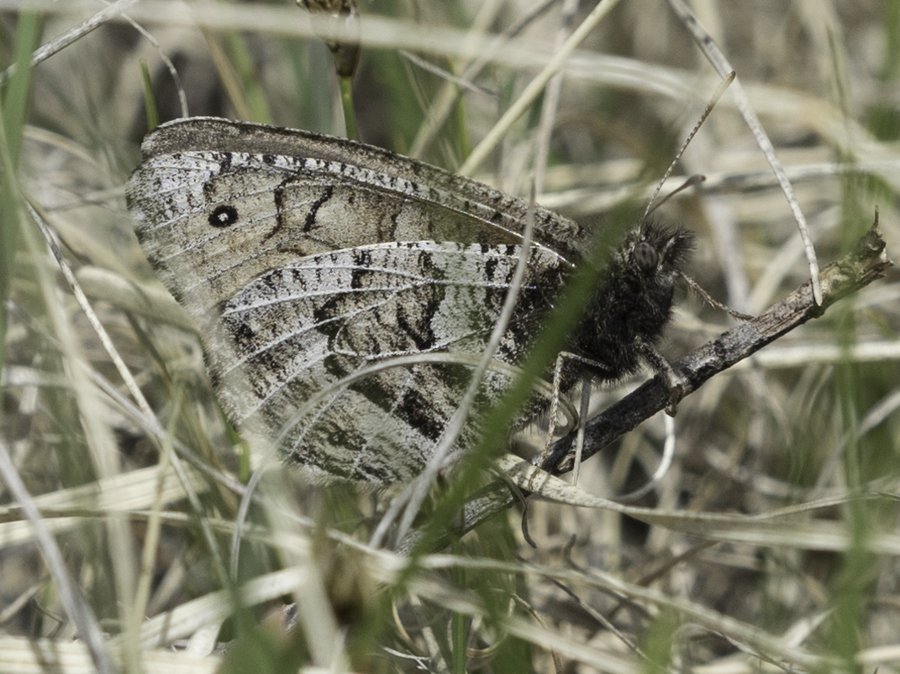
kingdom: Animalia
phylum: Arthropoda
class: Insecta
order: Lepidoptera
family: Nymphalidae
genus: Oeneis
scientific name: Oeneis alberta
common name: Alberta Arctic
